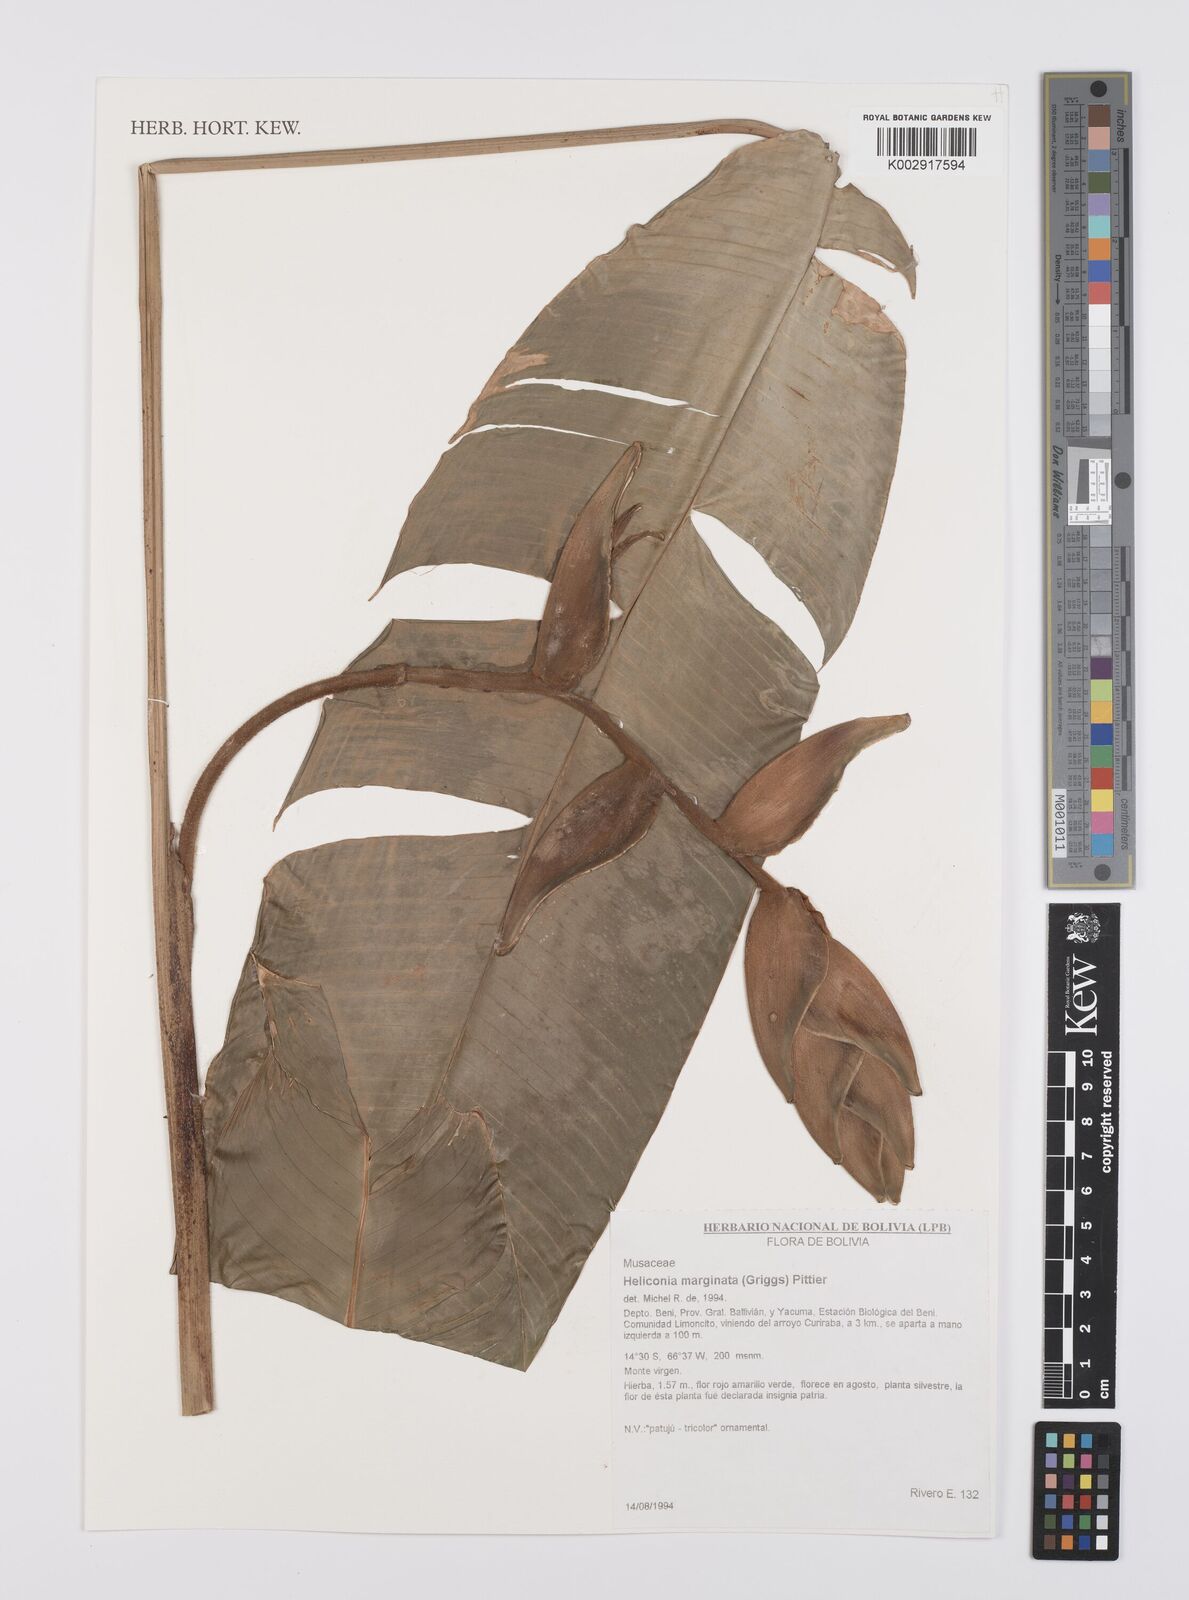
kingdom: Plantae
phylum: Tracheophyta
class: Liliopsida
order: Zingiberales
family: Heliconiaceae
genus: Heliconia
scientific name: Heliconia marginata
